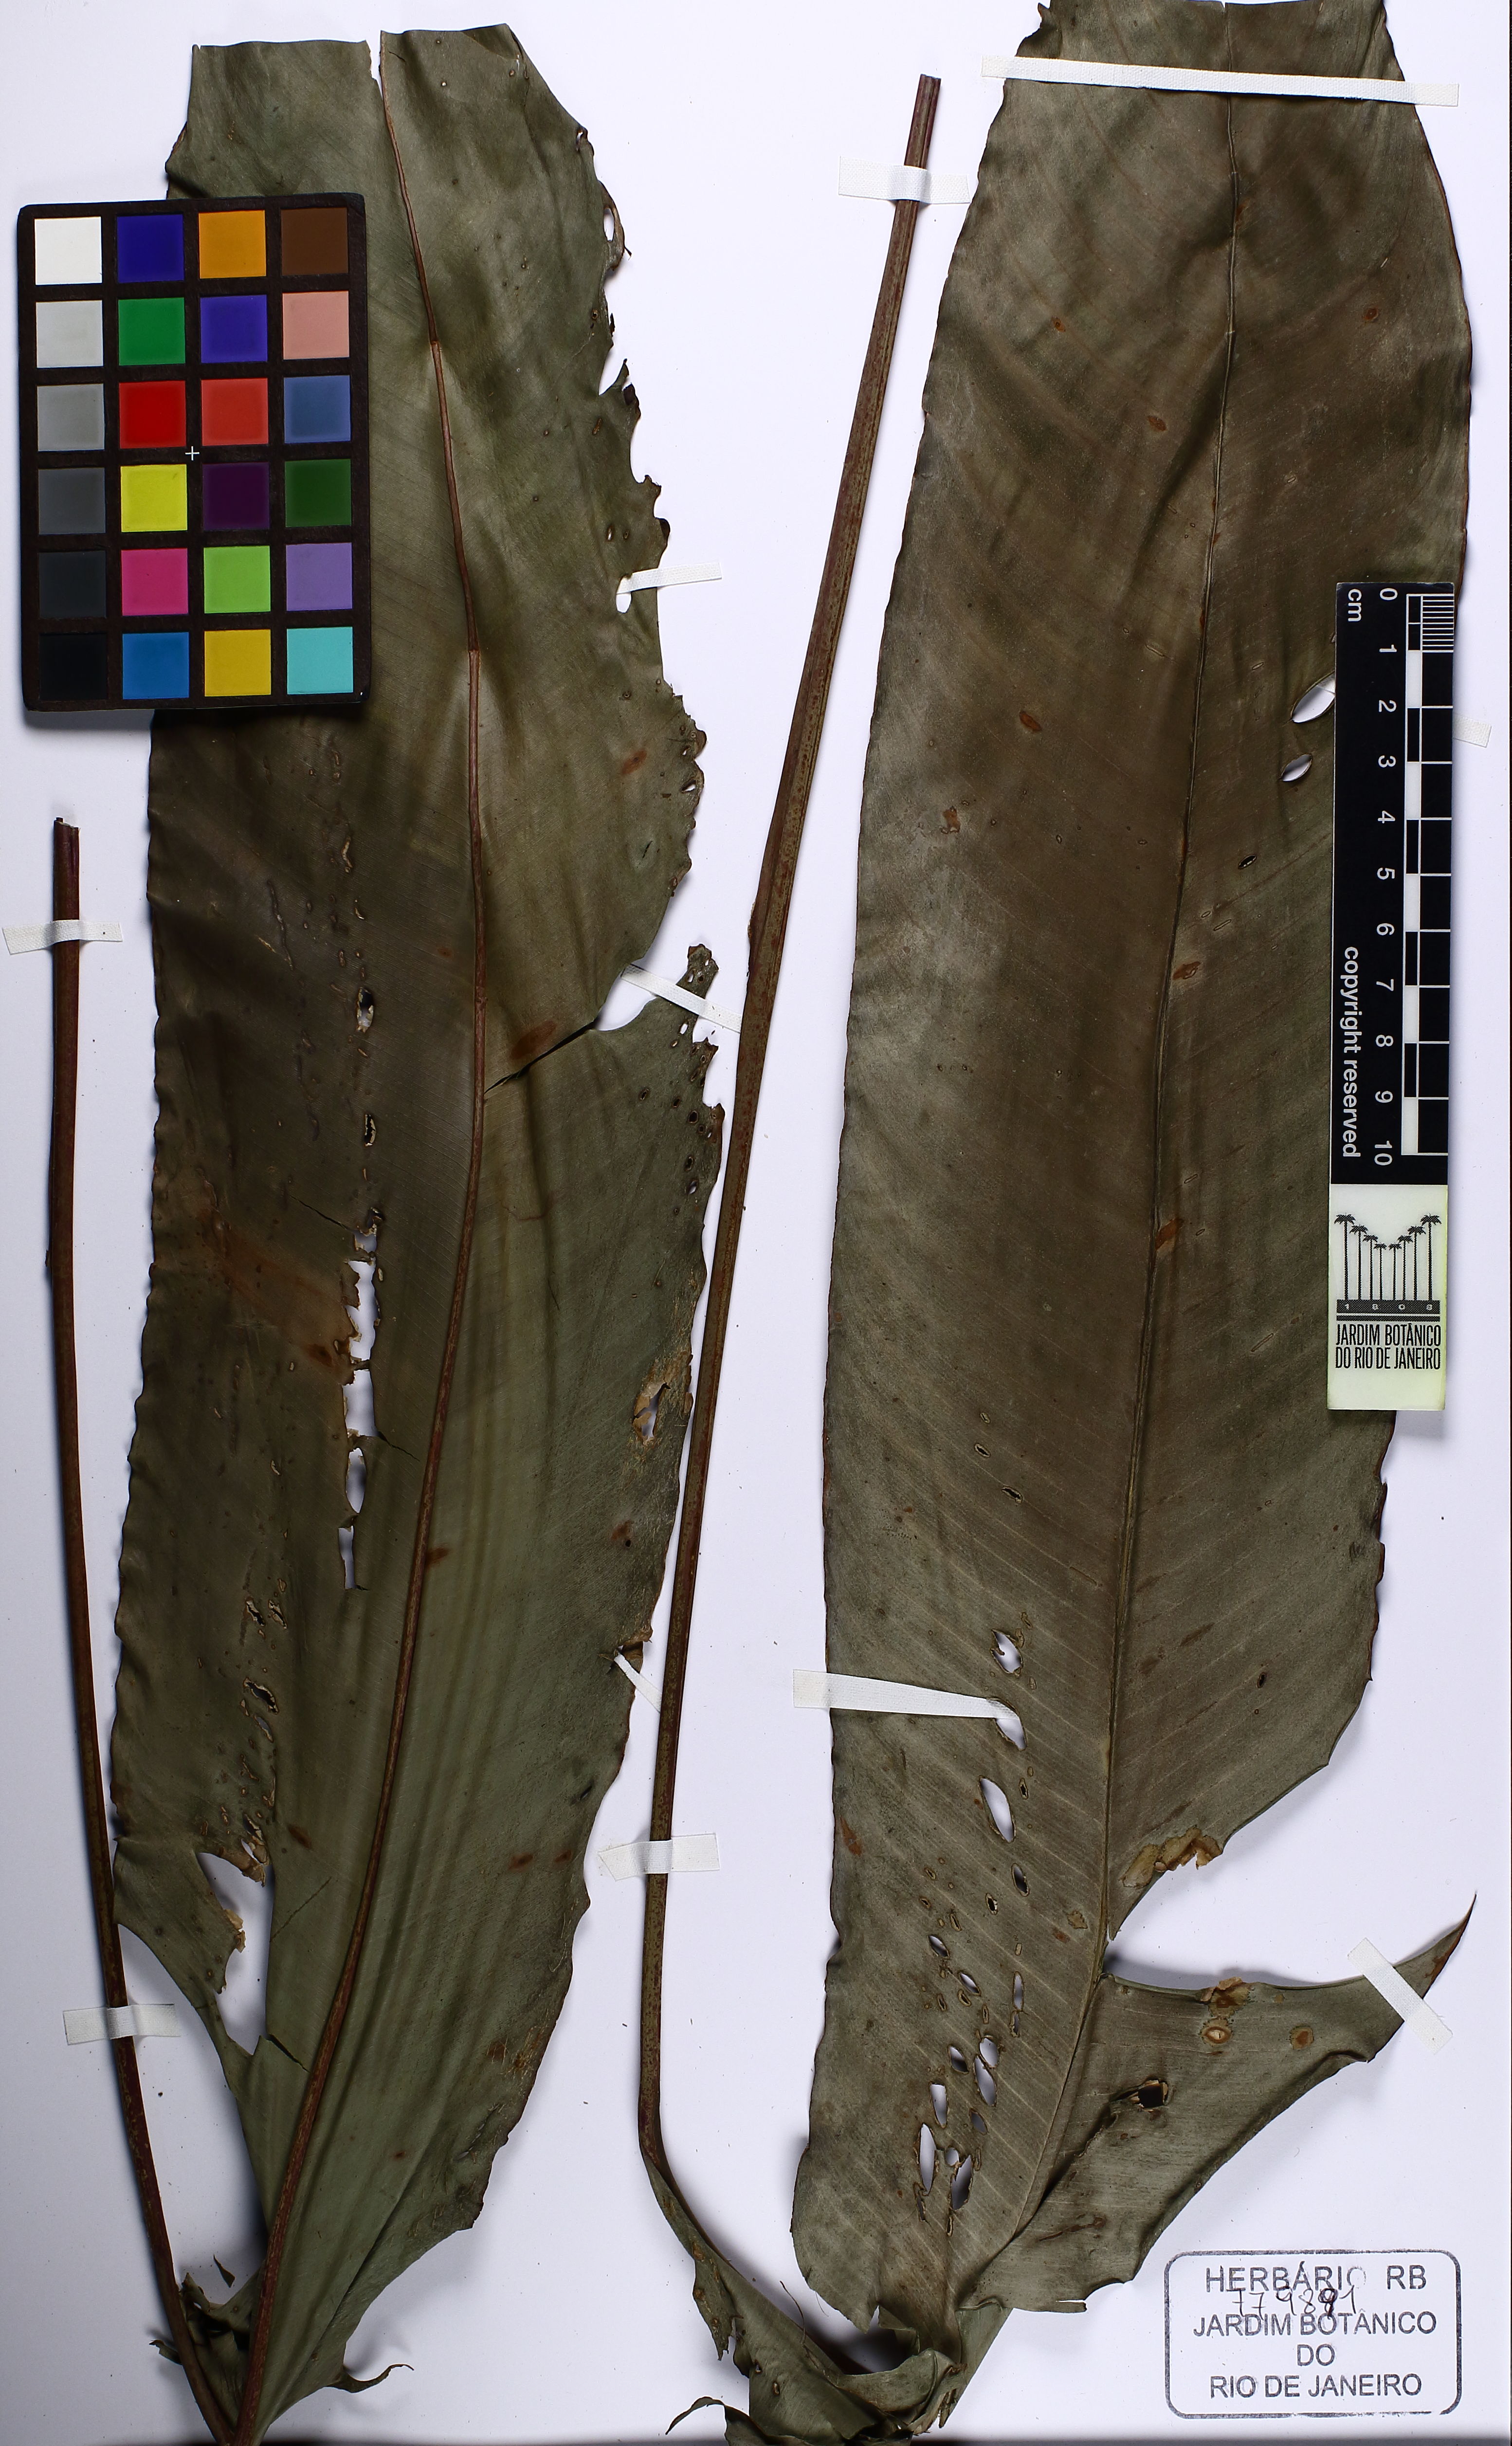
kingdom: Plantae
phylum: Tracheophyta
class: Liliopsida
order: Zingiberales
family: Heliconiaceae
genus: Heliconia
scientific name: Heliconia acuminata
